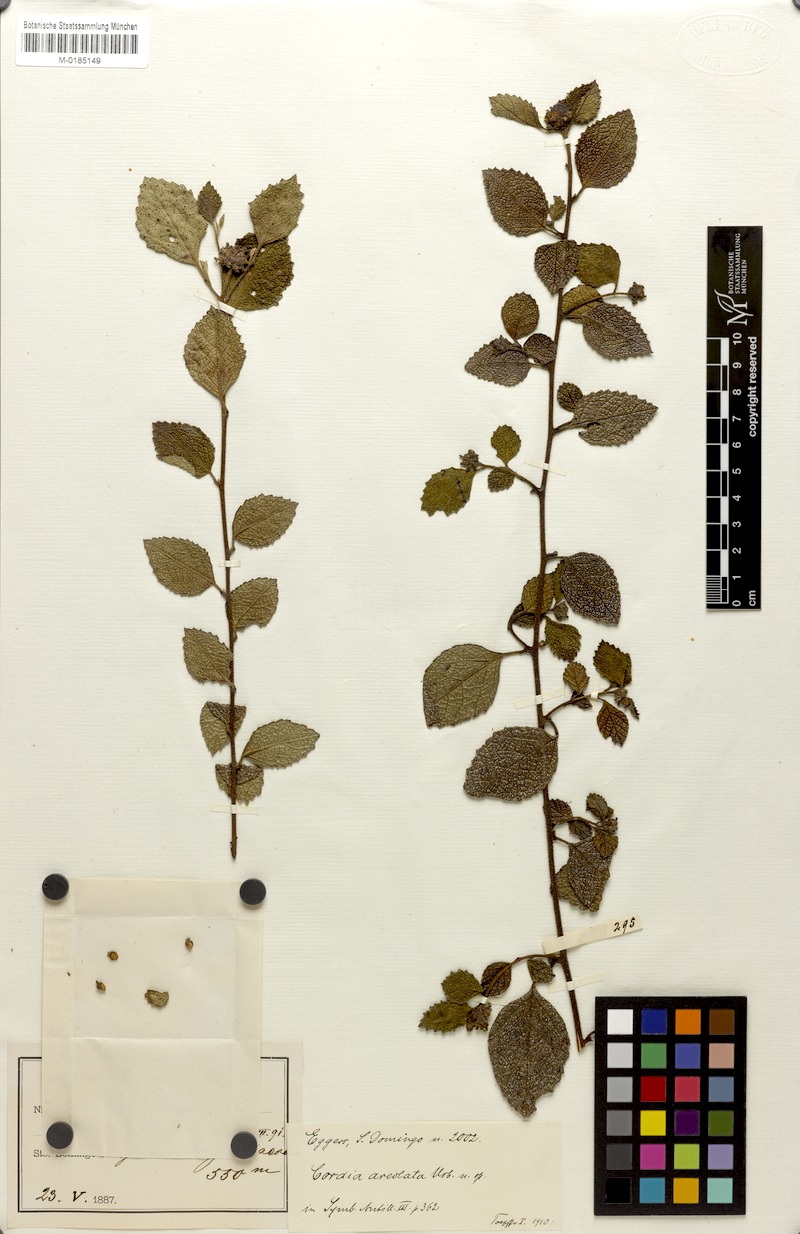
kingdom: Plantae
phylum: Tracheophyta
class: Magnoliopsida
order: Boraginales
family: Cordiaceae
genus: Varronia
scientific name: Varronia areolata
